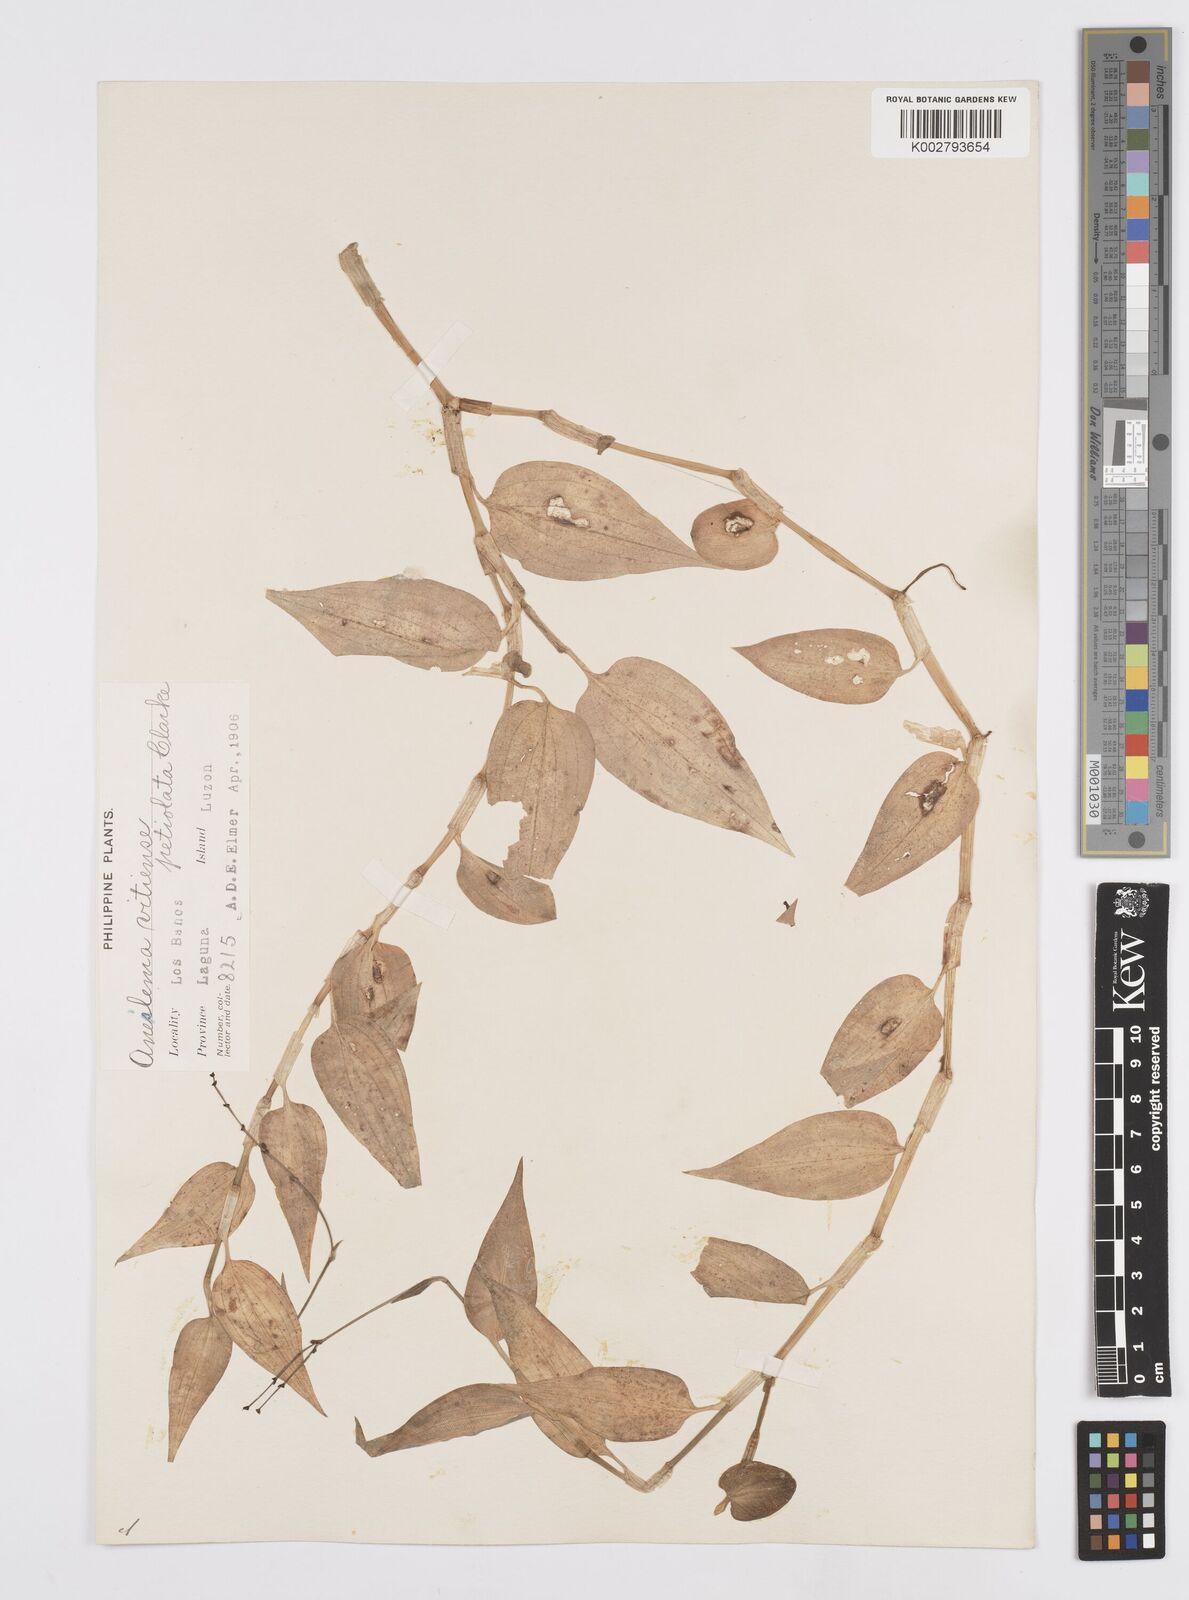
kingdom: Plantae
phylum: Tracheophyta
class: Liliopsida
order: Commelinales
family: Commelinaceae
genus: Murdannia
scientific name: Murdannia
